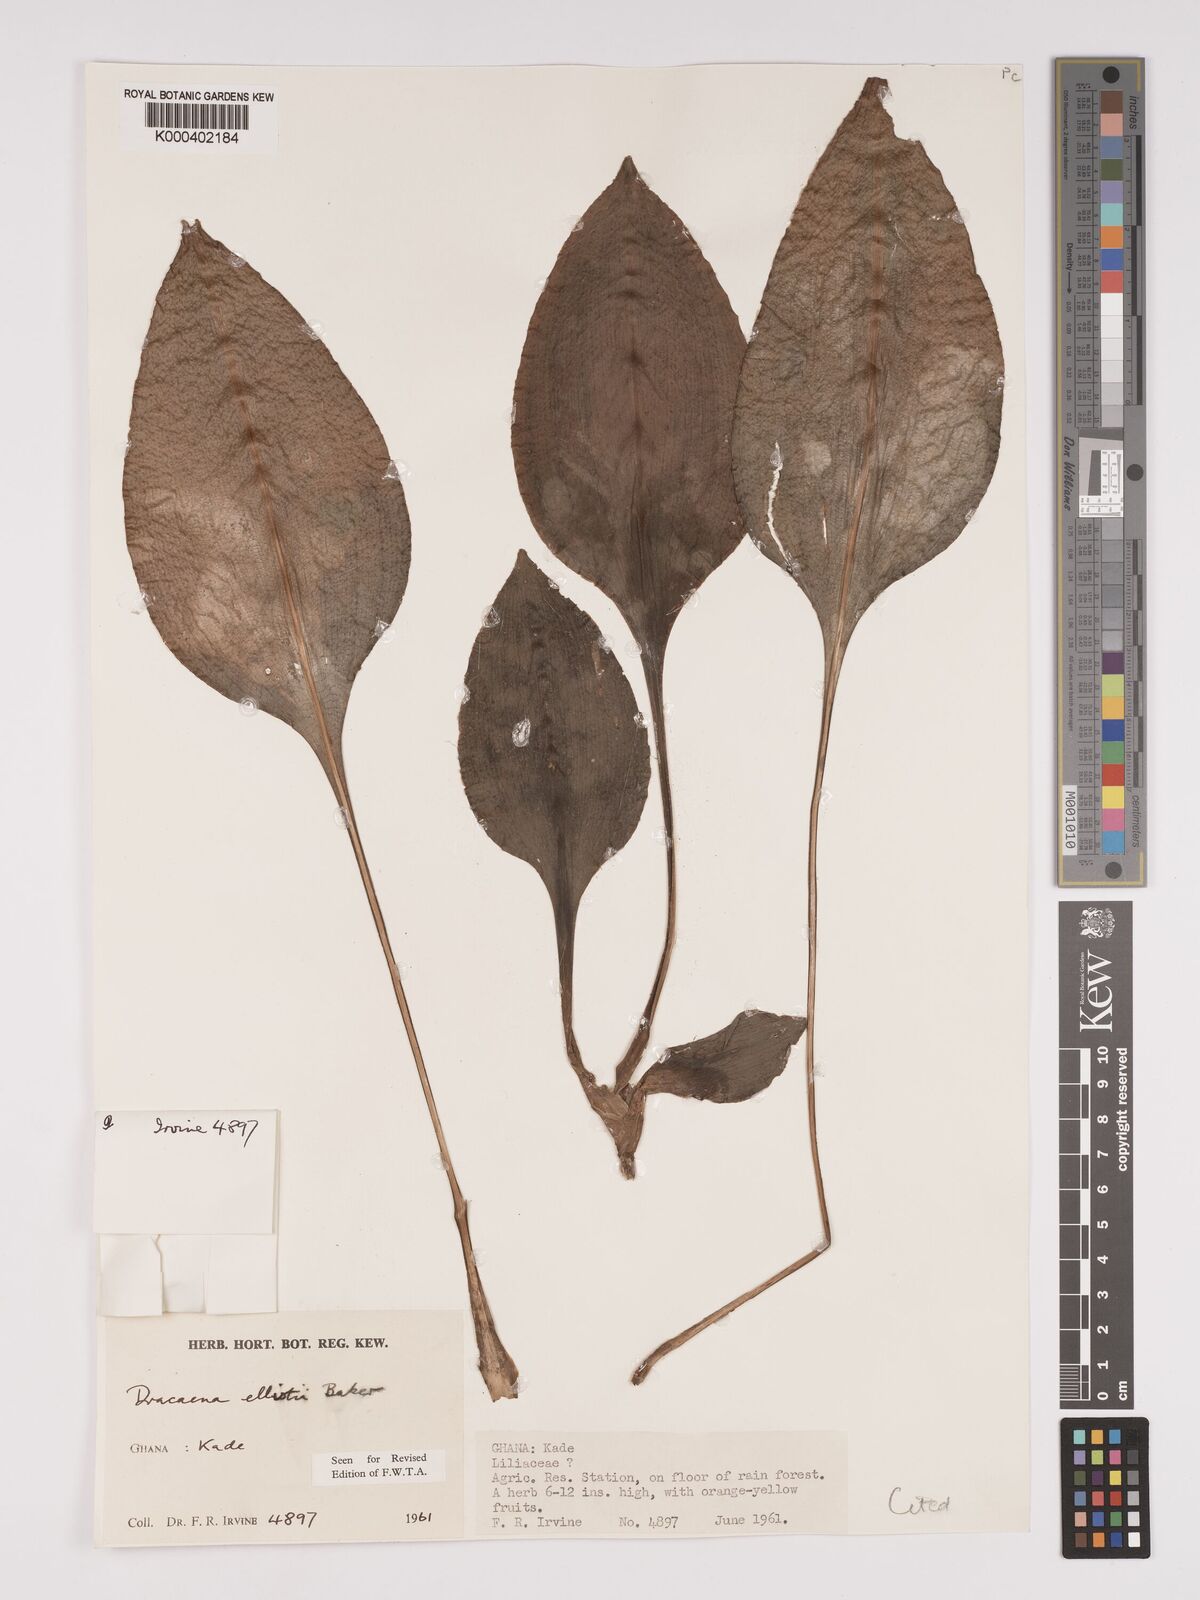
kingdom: Plantae
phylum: Tracheophyta
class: Liliopsida
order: Asparagales
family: Asparagaceae
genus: Dracaena
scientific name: Dracaena cristula
